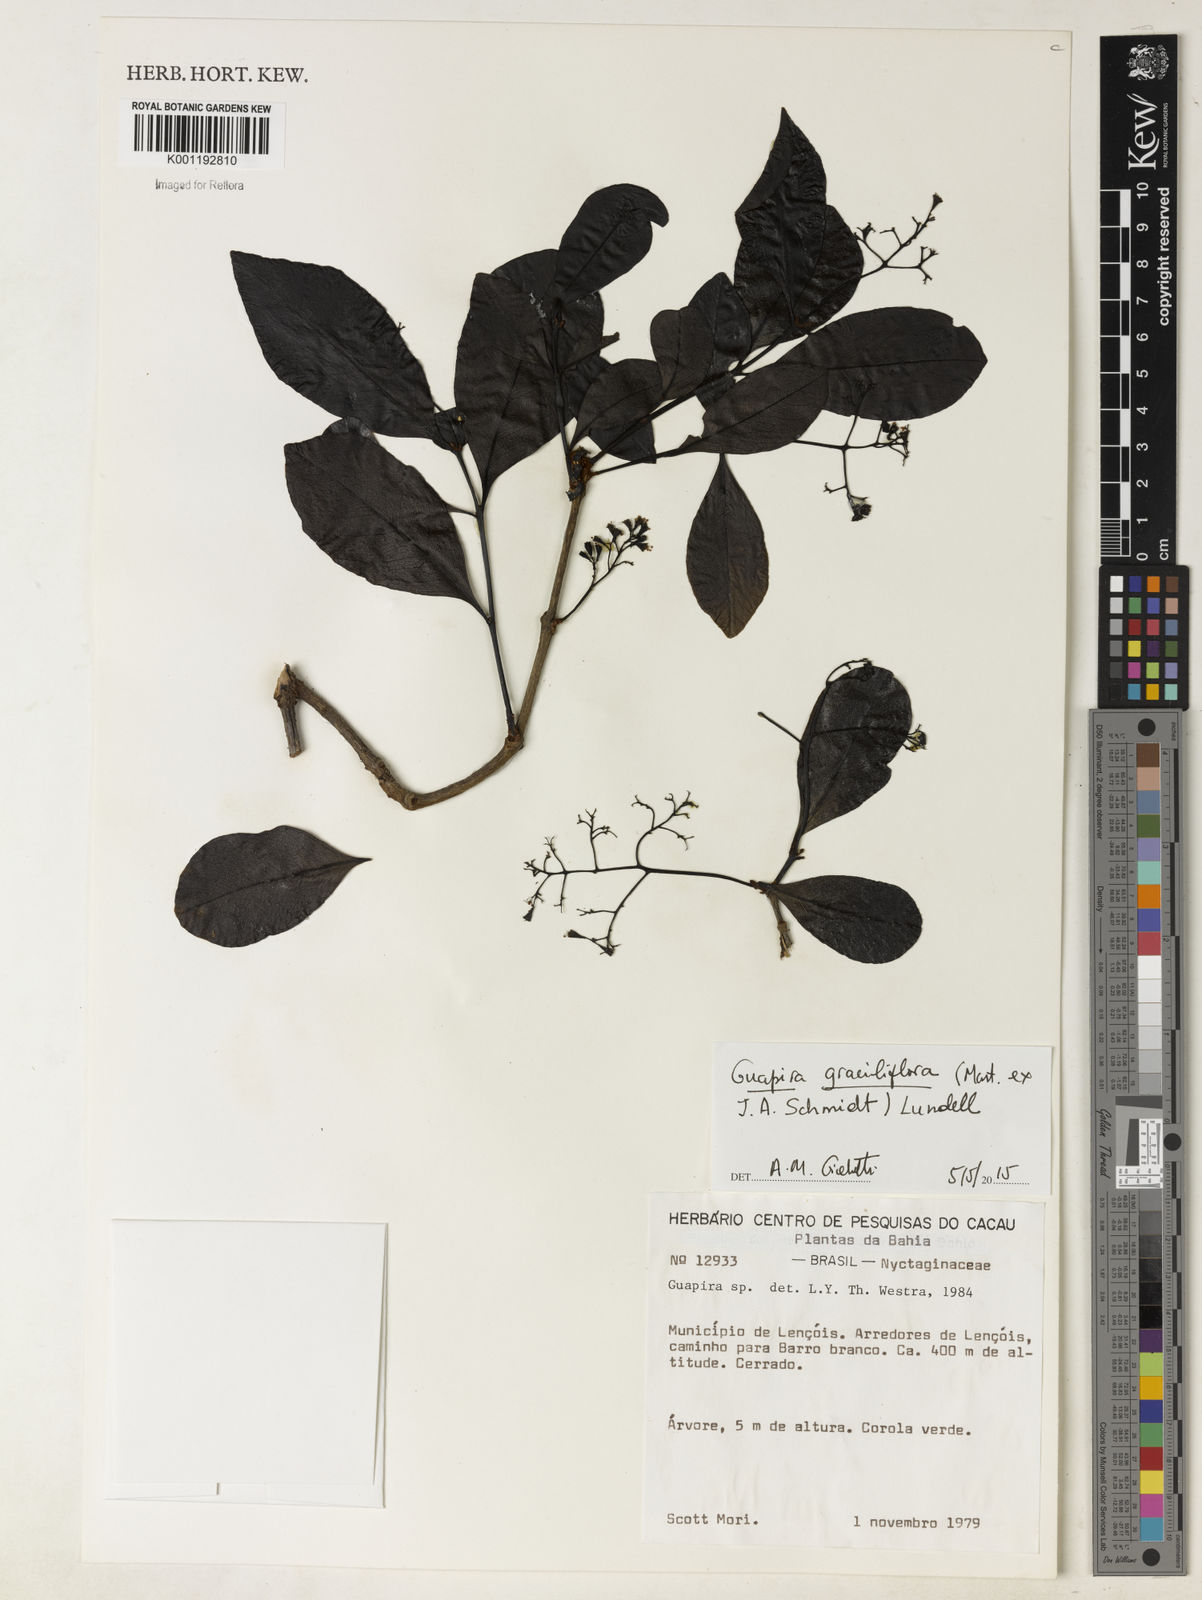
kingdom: Plantae
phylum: Tracheophyta
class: Magnoliopsida
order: Caryophyllales
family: Nyctaginaceae
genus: Guapira
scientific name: Guapira graciliflora
